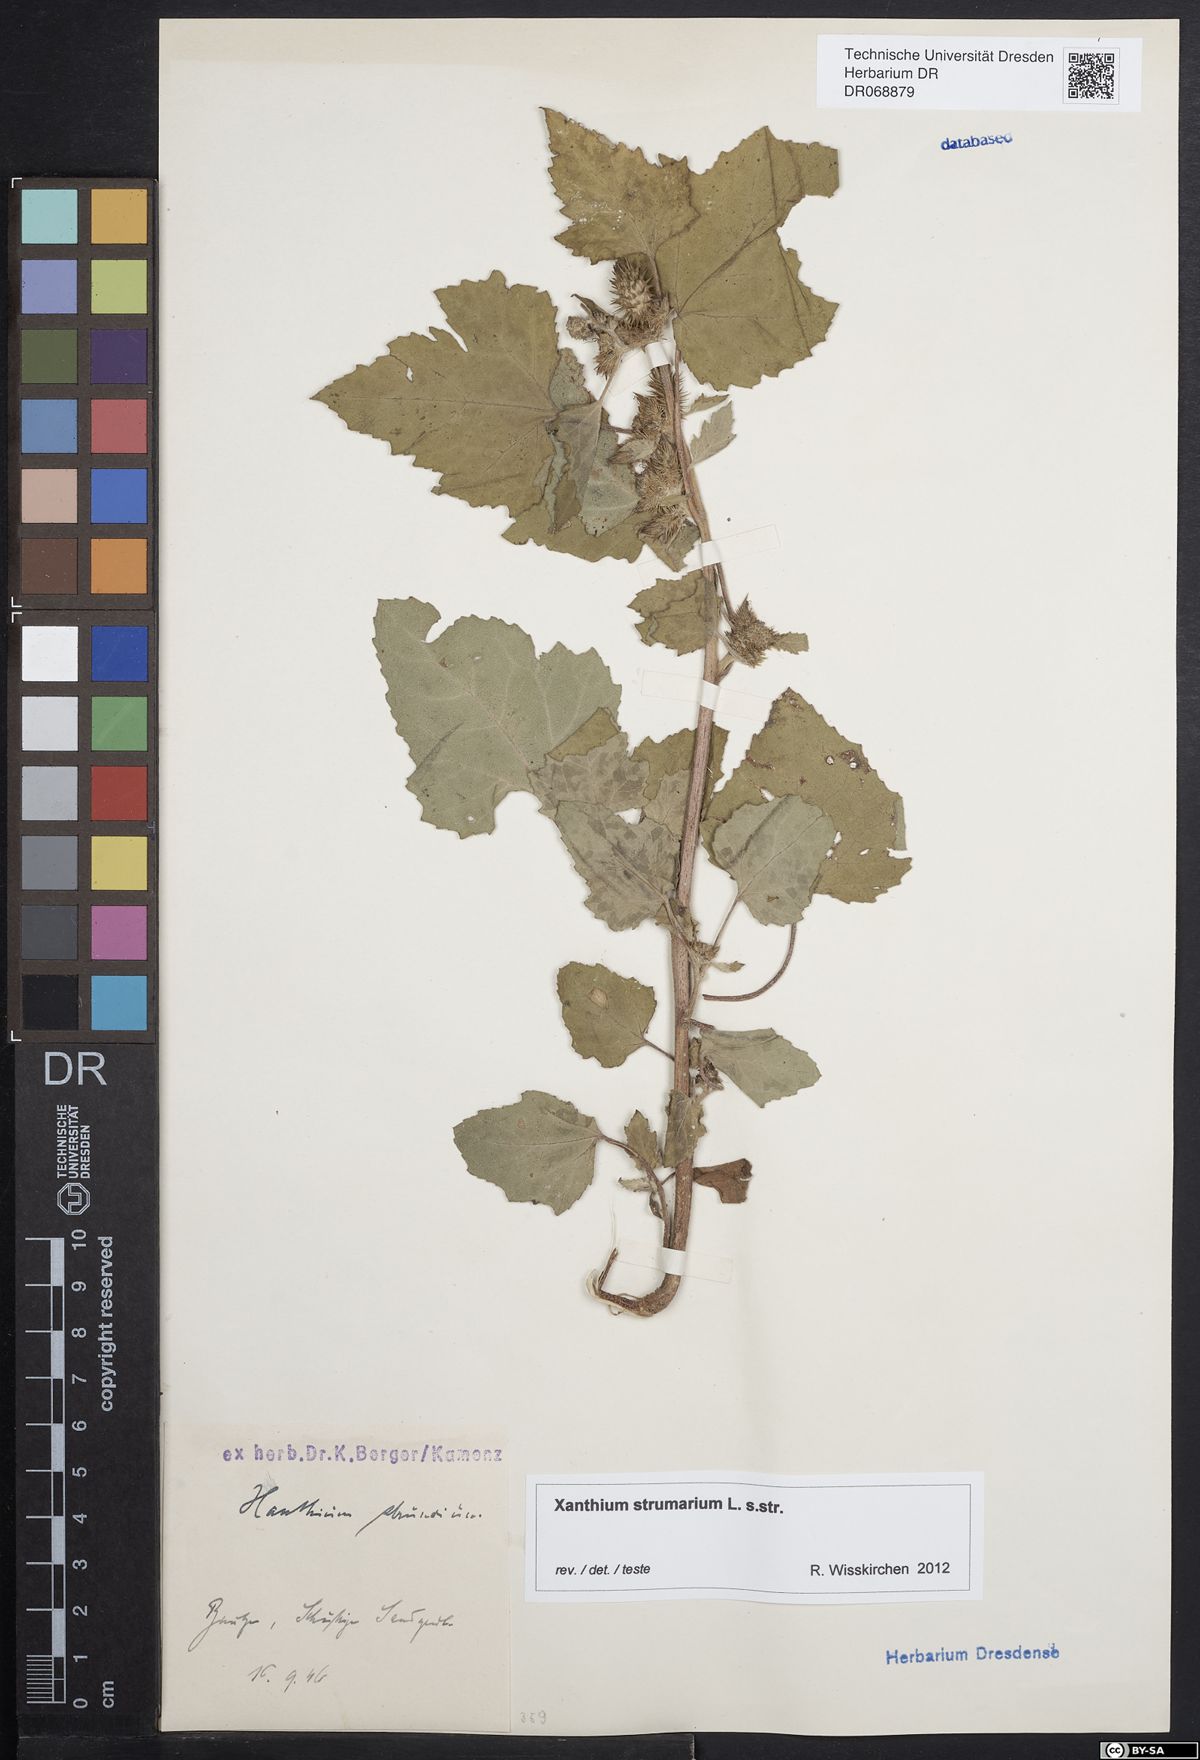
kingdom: Plantae
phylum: Tracheophyta
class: Magnoliopsida
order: Asterales
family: Asteraceae
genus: Xanthium
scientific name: Xanthium strumarium
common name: Rough cocklebur
